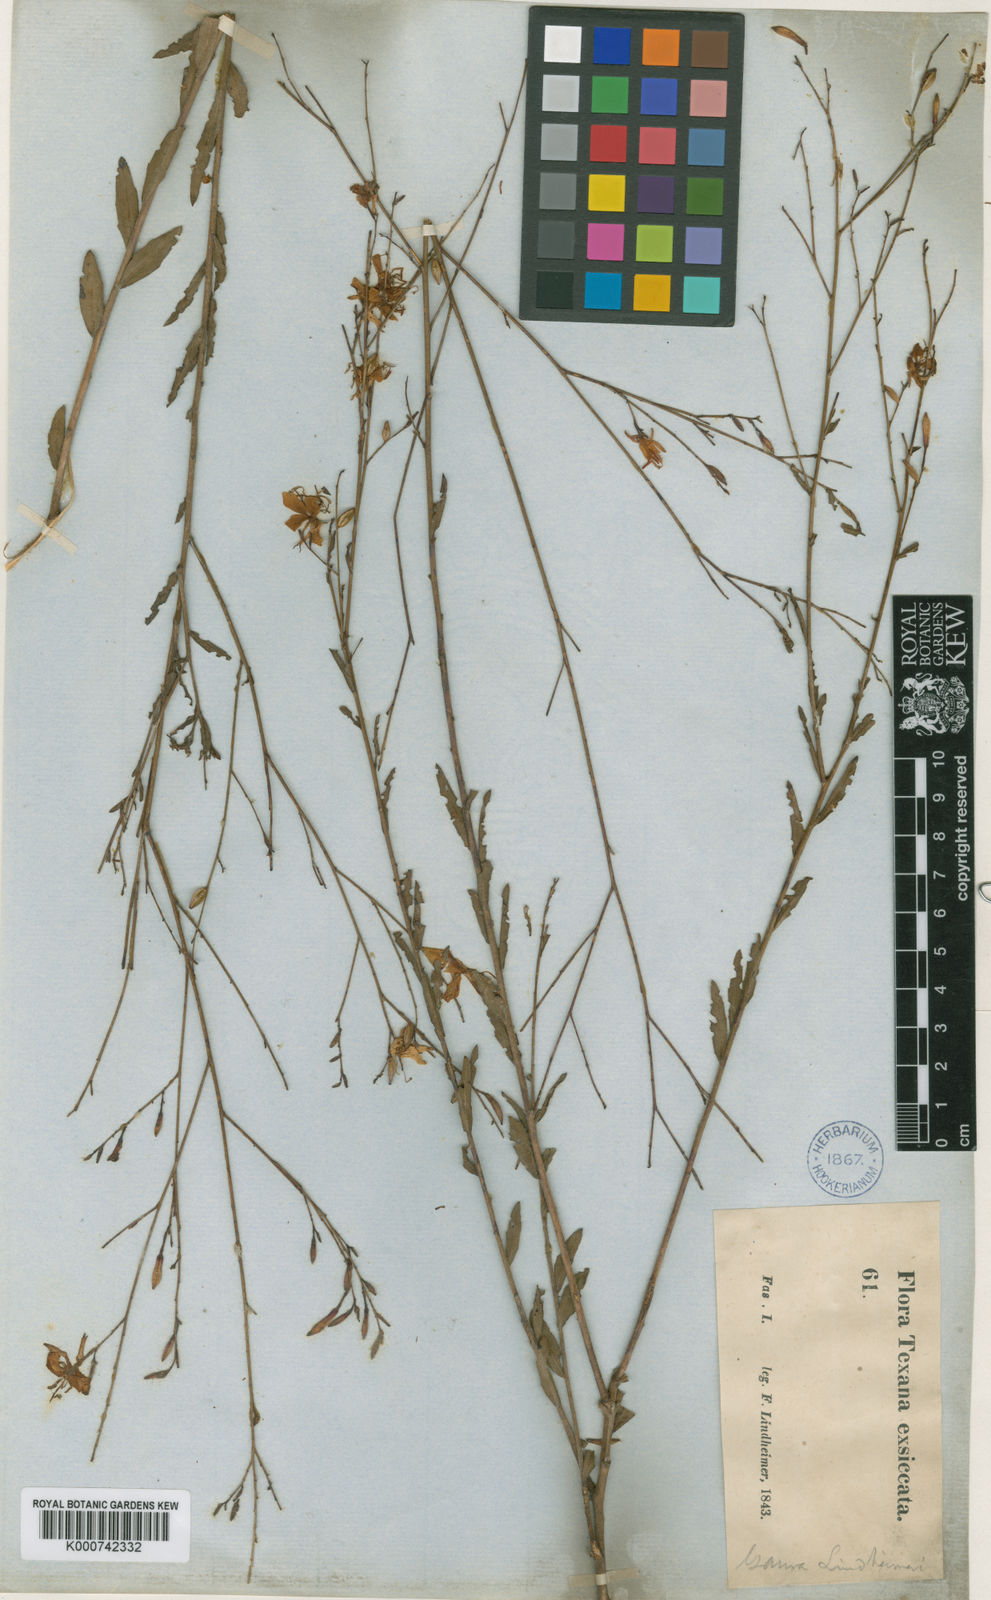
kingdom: Plantae
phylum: Tracheophyta
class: Magnoliopsida
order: Myrtales
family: Onagraceae
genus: Oenothera
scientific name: Oenothera lindheimeri
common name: Lindheimer's beeblossom
